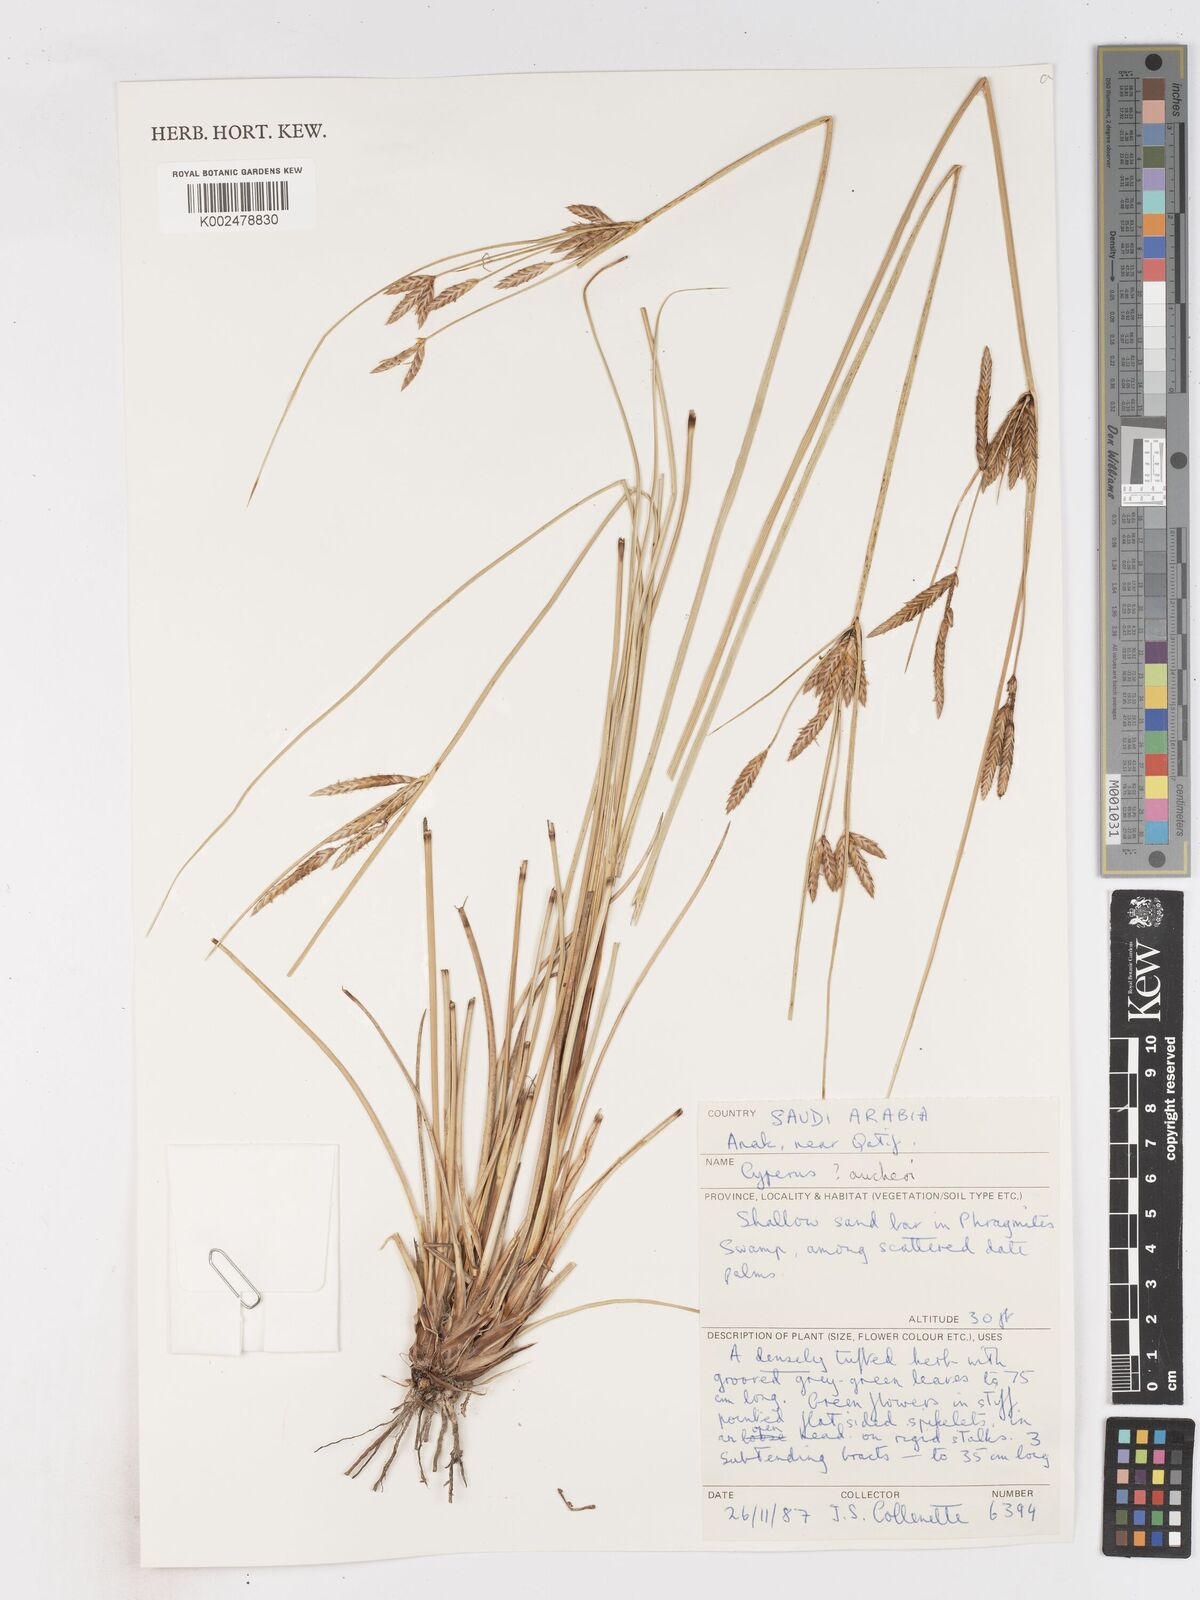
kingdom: Plantae
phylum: Tracheophyta
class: Liliopsida
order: Poales
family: Cyperaceae
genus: Cyperus
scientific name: Cyperus aucheri
